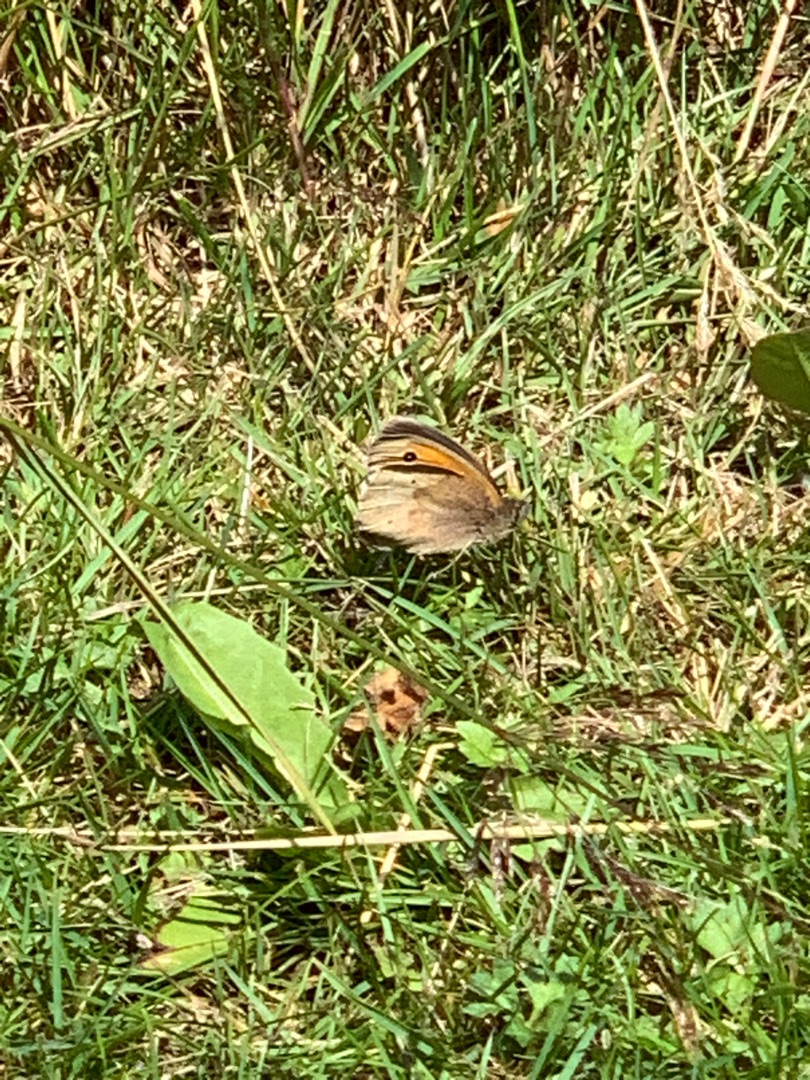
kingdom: Animalia
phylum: Arthropoda
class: Insecta
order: Lepidoptera
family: Nymphalidae
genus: Maniola
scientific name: Maniola jurtina
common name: Græsrandøje
